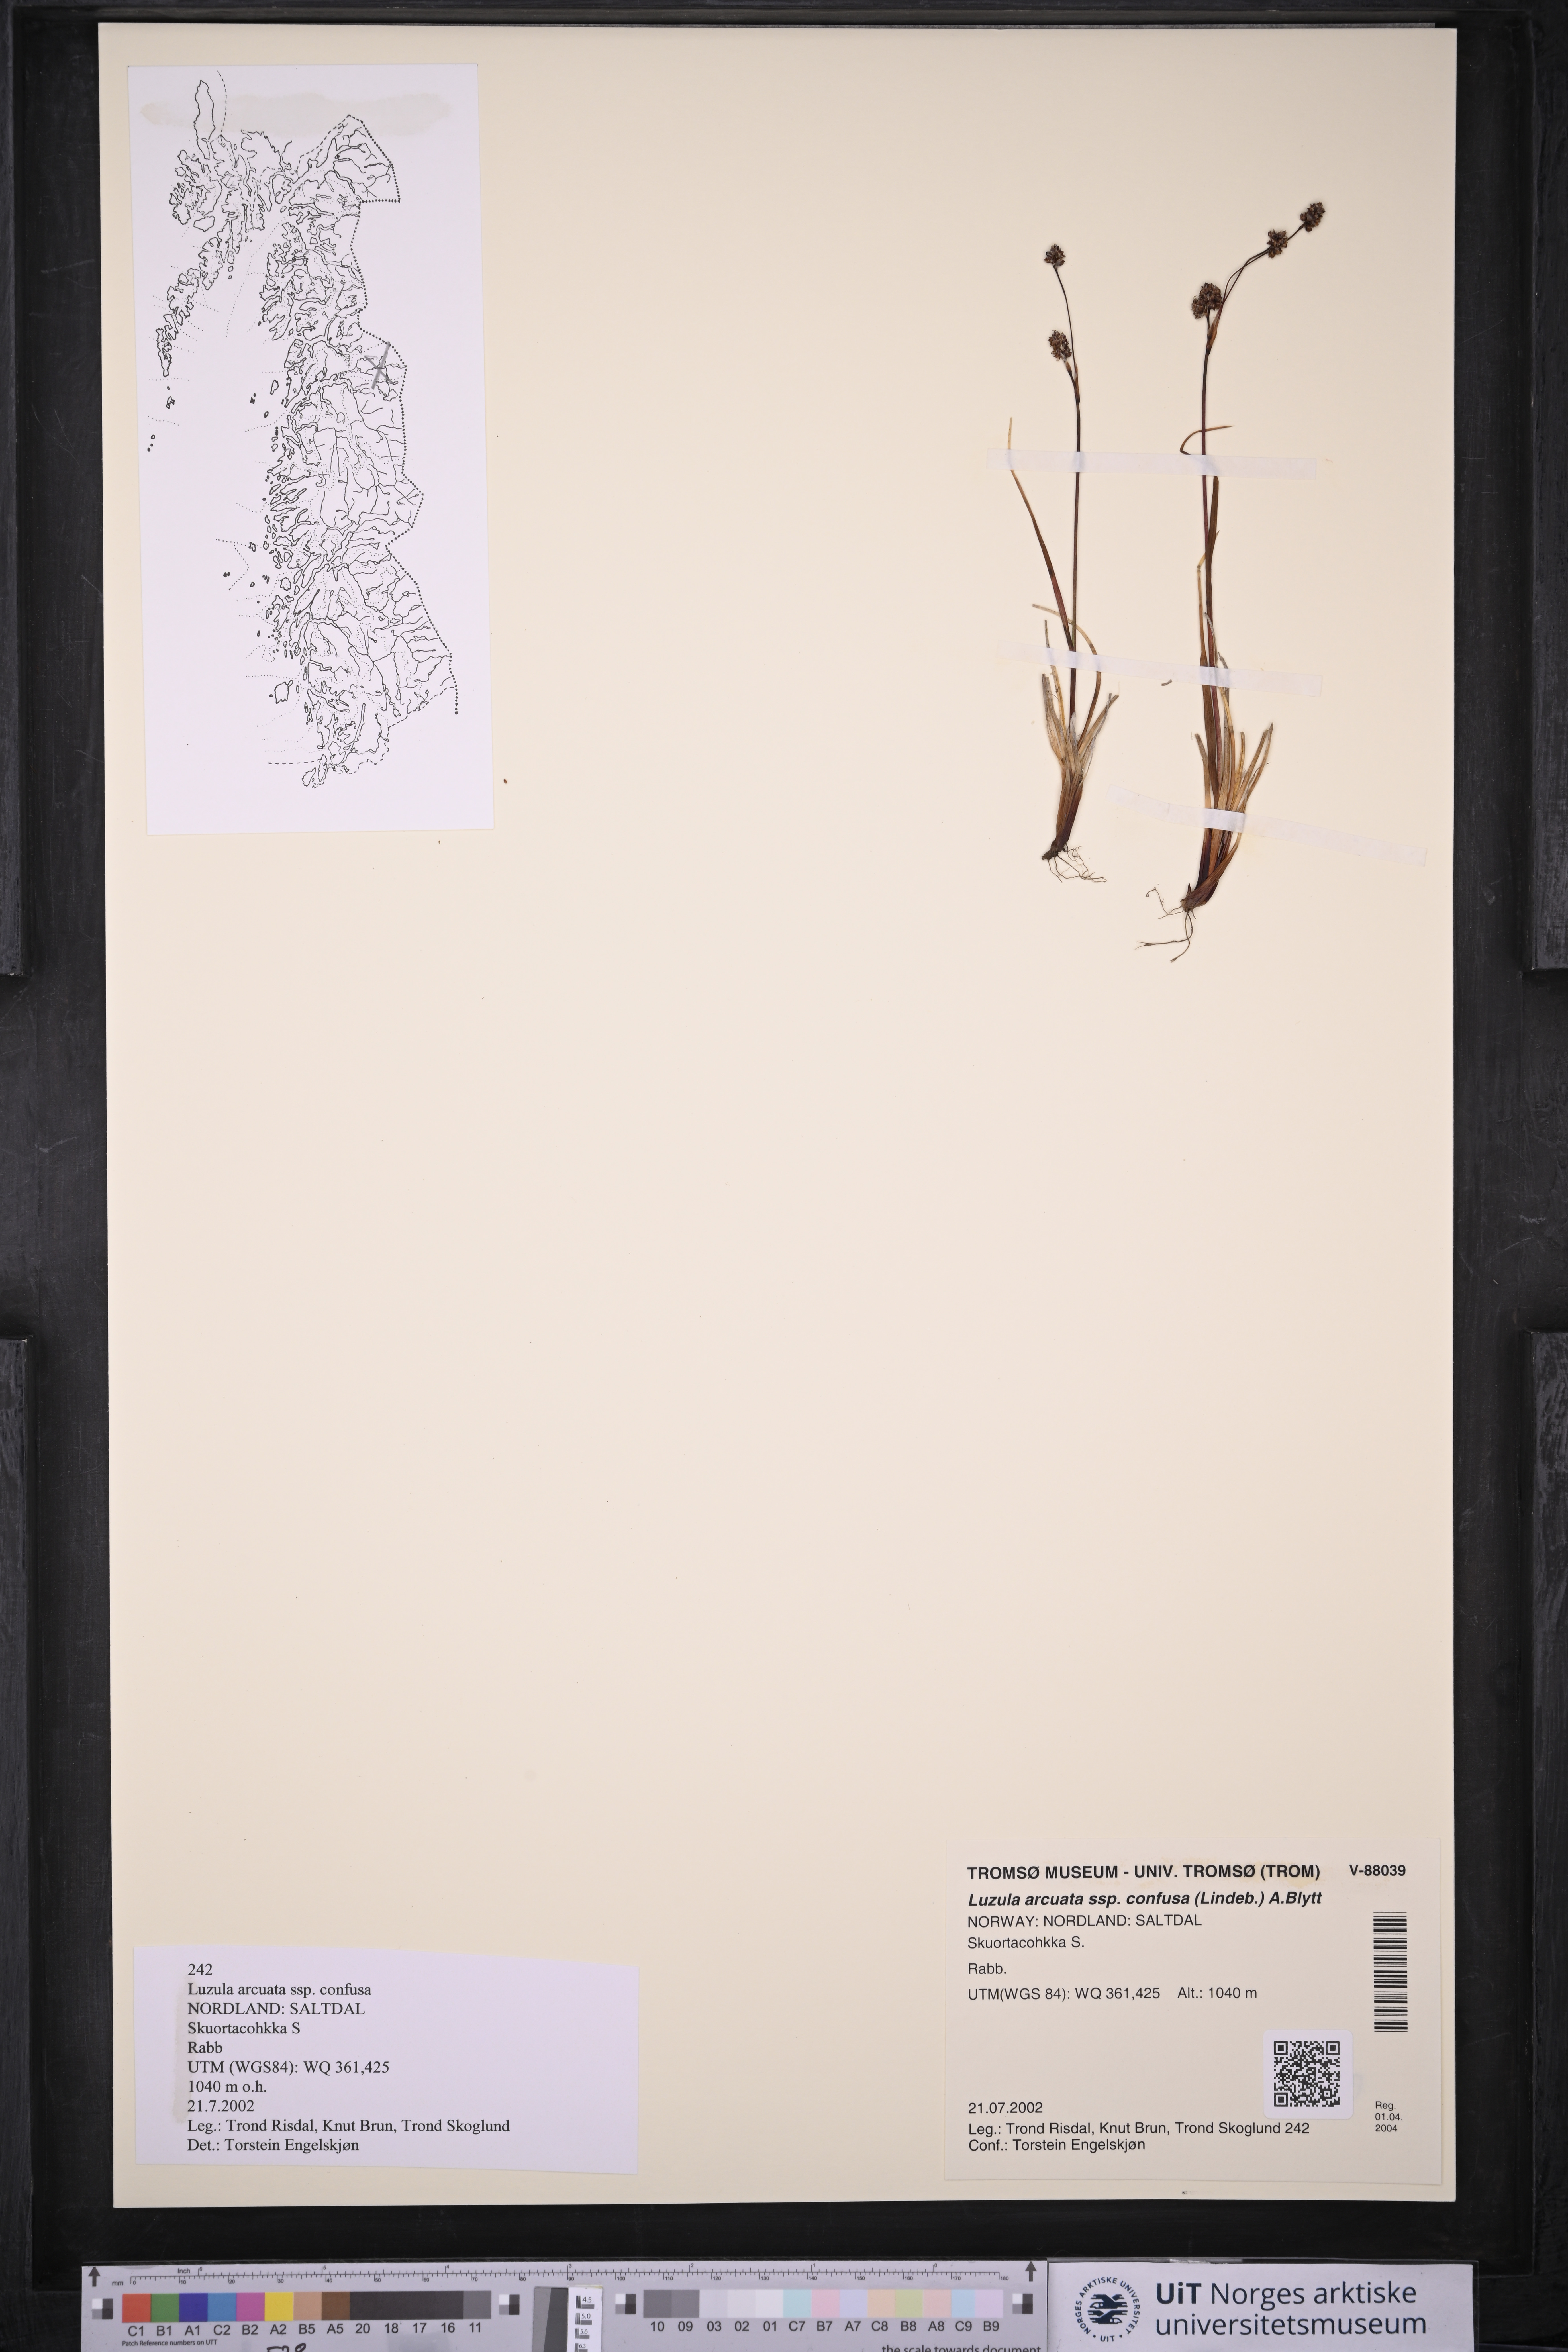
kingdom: Plantae
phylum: Tracheophyta
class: Liliopsida
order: Poales
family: Juncaceae
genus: Luzula
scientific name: Luzula confusa
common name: Northern wood rush
